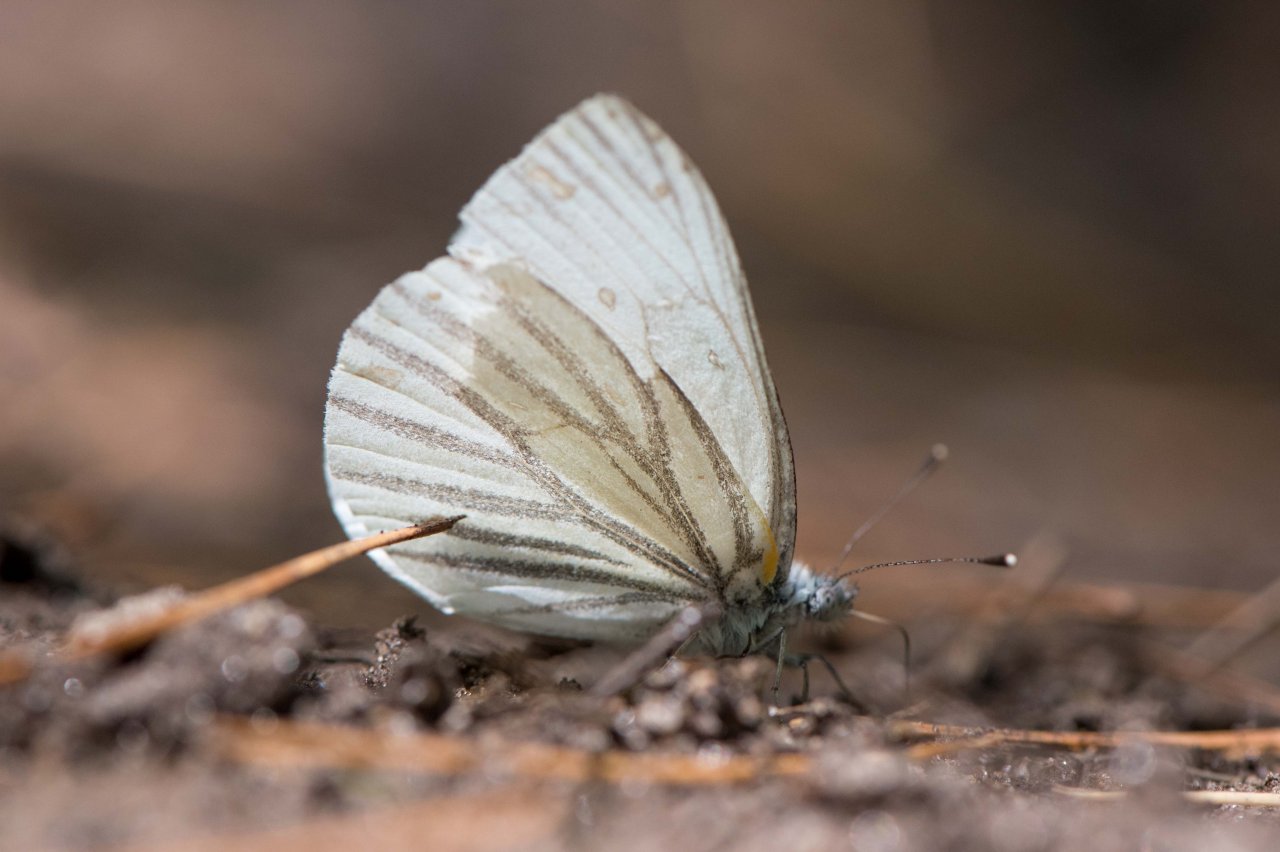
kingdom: Animalia
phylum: Arthropoda
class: Insecta
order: Lepidoptera
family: Pieridae
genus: Pieris
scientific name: Pieris oleracea
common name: Mustard White
